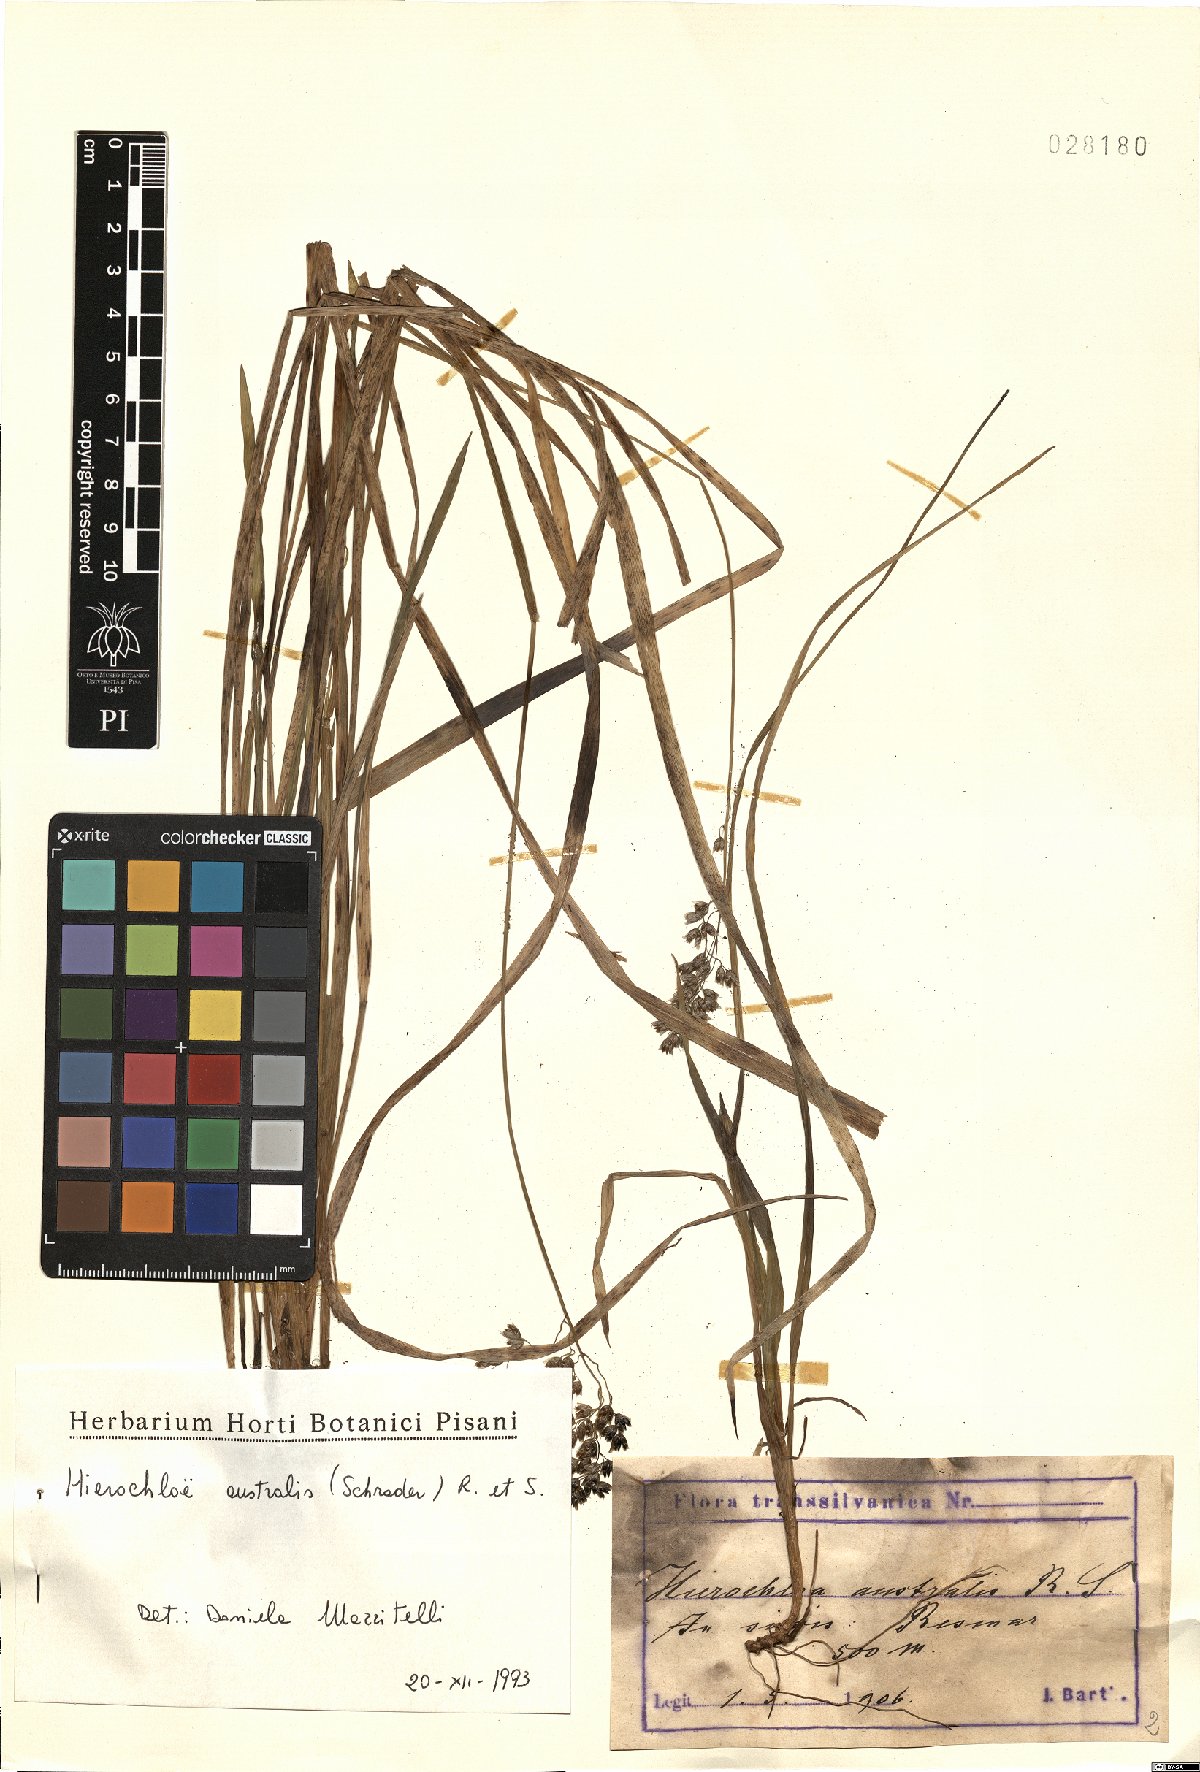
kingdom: Plantae
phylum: Tracheophyta
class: Liliopsida
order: Poales
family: Poaceae
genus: Anthoxanthum
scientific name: Anthoxanthum australe
